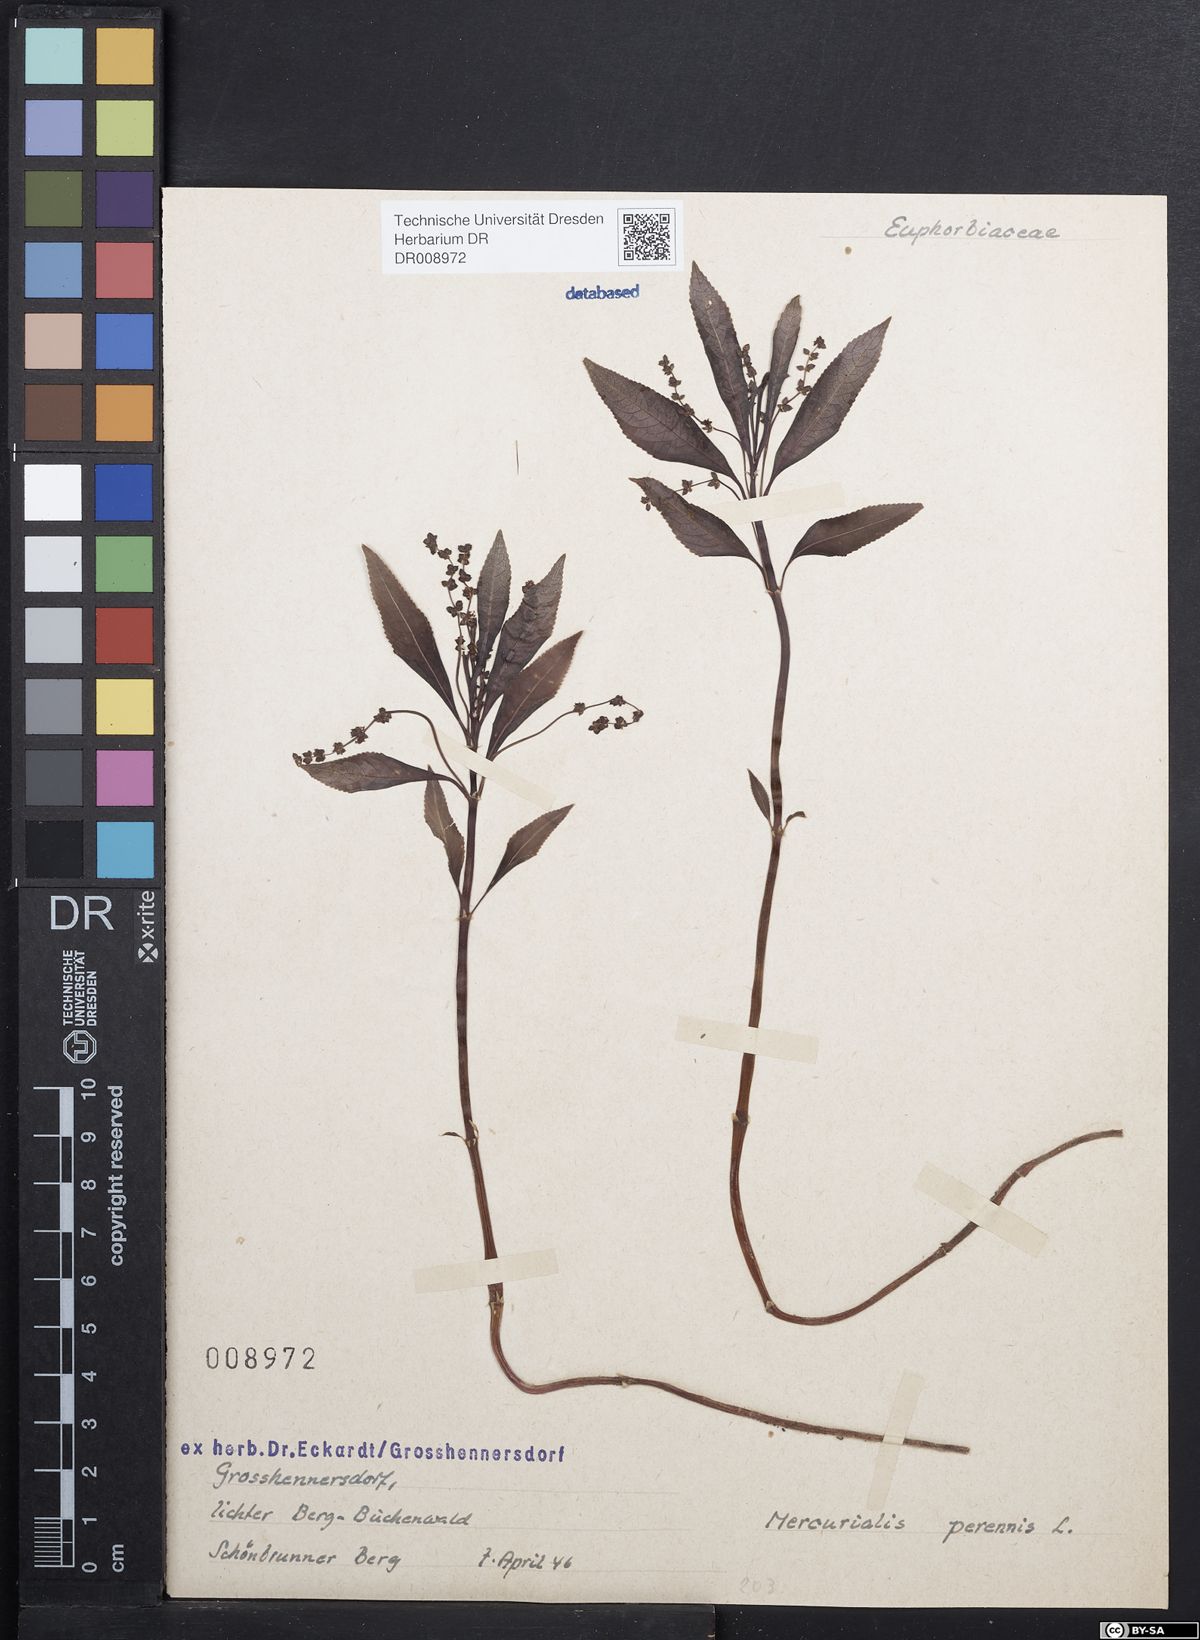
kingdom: Plantae
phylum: Tracheophyta
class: Magnoliopsida
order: Malpighiales
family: Euphorbiaceae
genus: Mercurialis
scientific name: Mercurialis perennis
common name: Dog mercury
